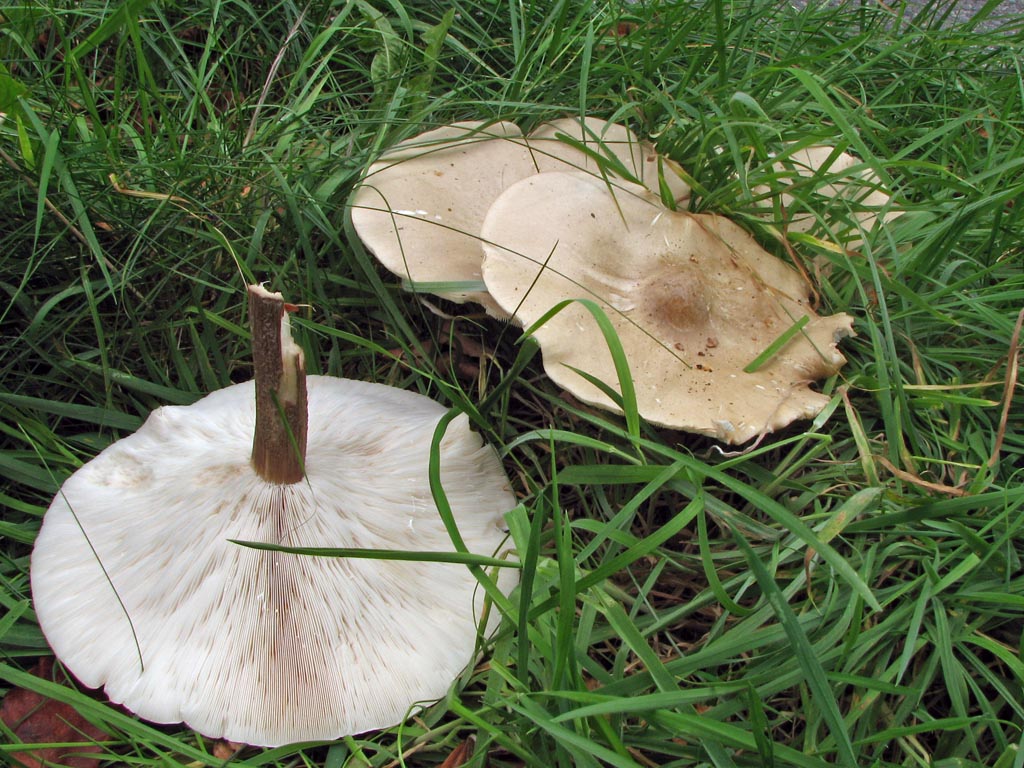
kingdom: Fungi
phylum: Basidiomycota
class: Agaricomycetes
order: Agaricales
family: Tricholomataceae
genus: Melanoleuca
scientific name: Melanoleuca grammopodia
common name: stribestokket munkehat
